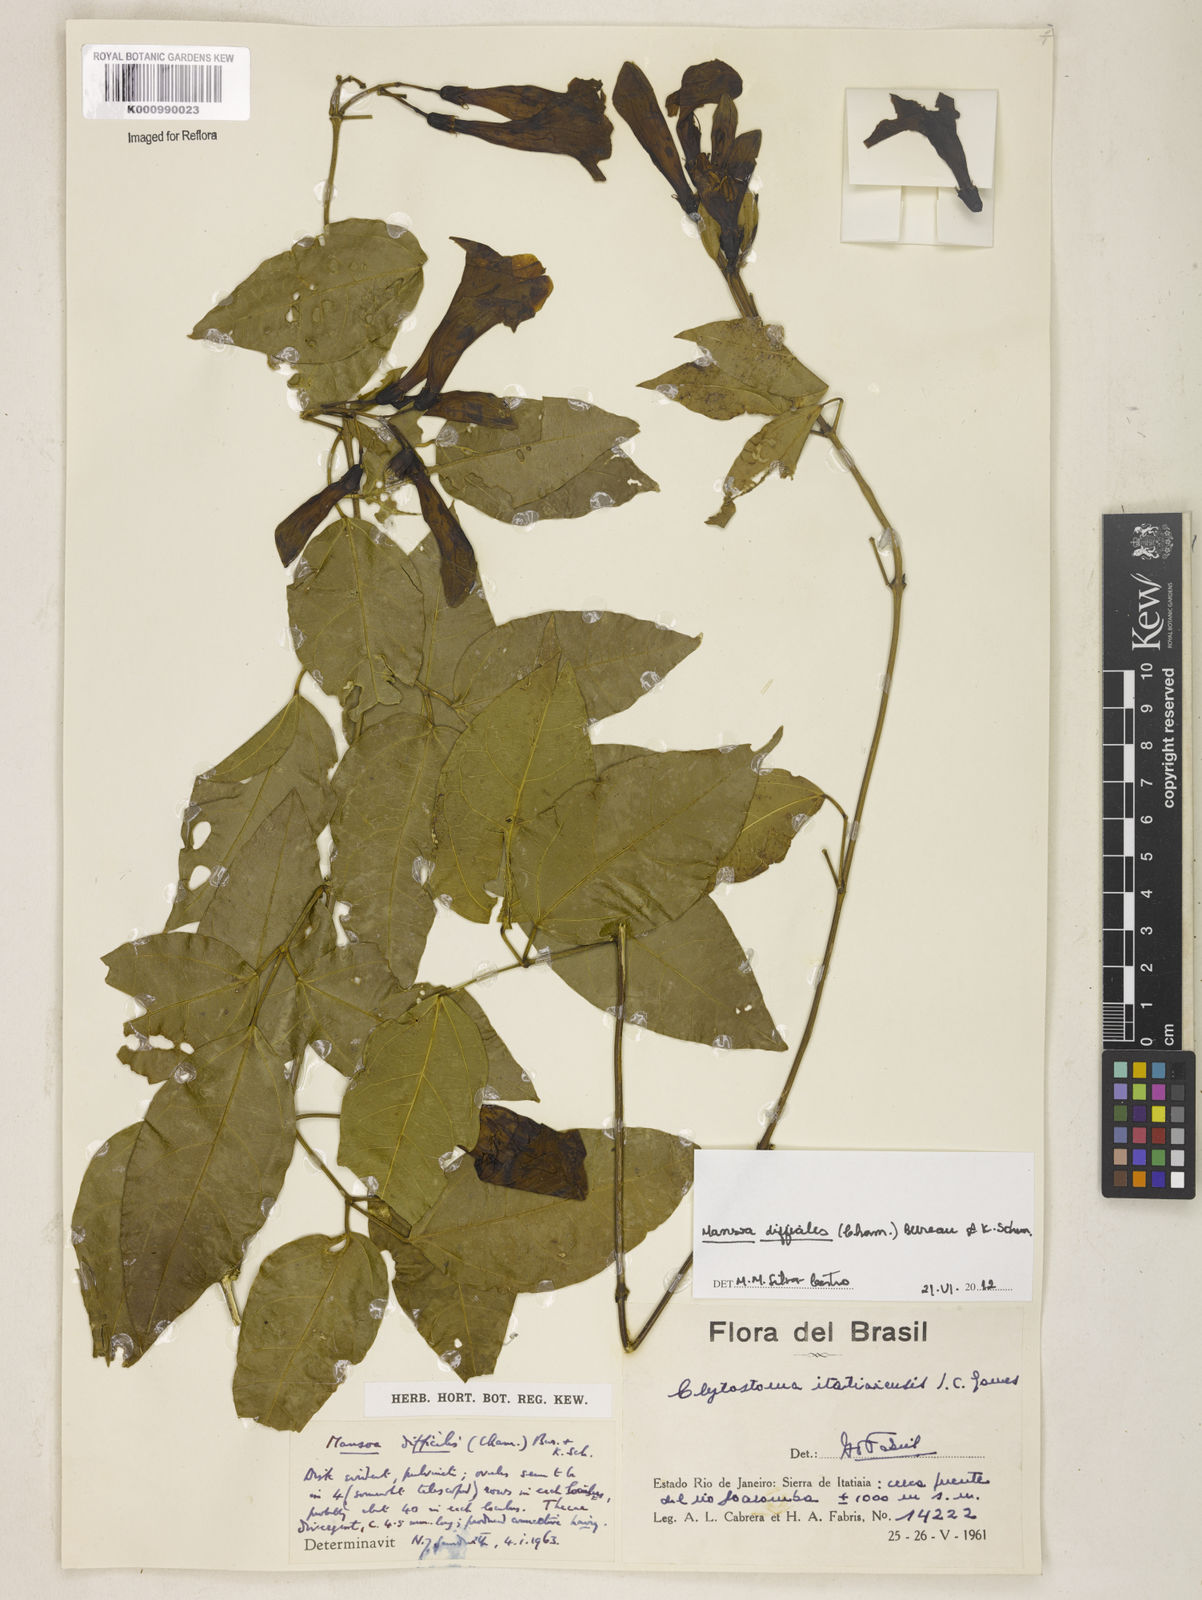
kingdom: Plantae
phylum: Tracheophyta
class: Magnoliopsida
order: Lamiales
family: Bignoniaceae
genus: Mansoa
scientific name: Mansoa difficilis
